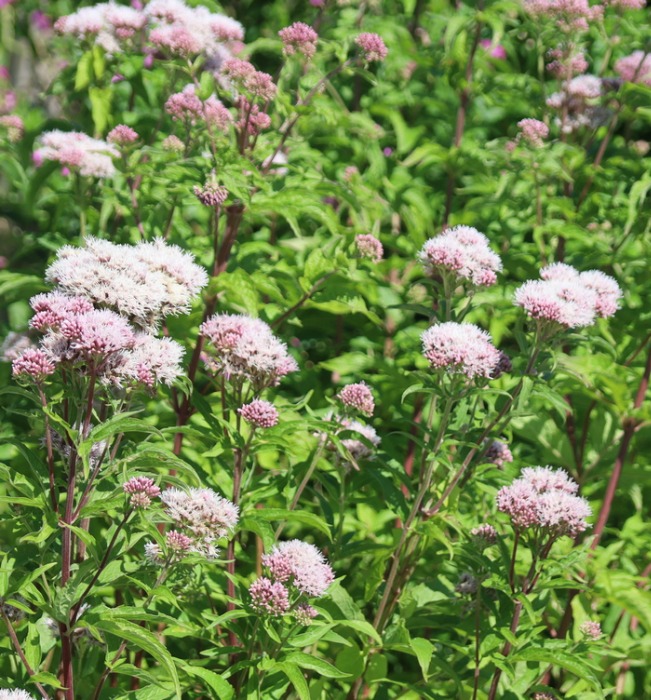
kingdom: Plantae
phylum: Tracheophyta
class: Magnoliopsida
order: Asterales
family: Asteraceae
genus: Eupatorium
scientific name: Eupatorium cannabinum
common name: Hjortetrøst
